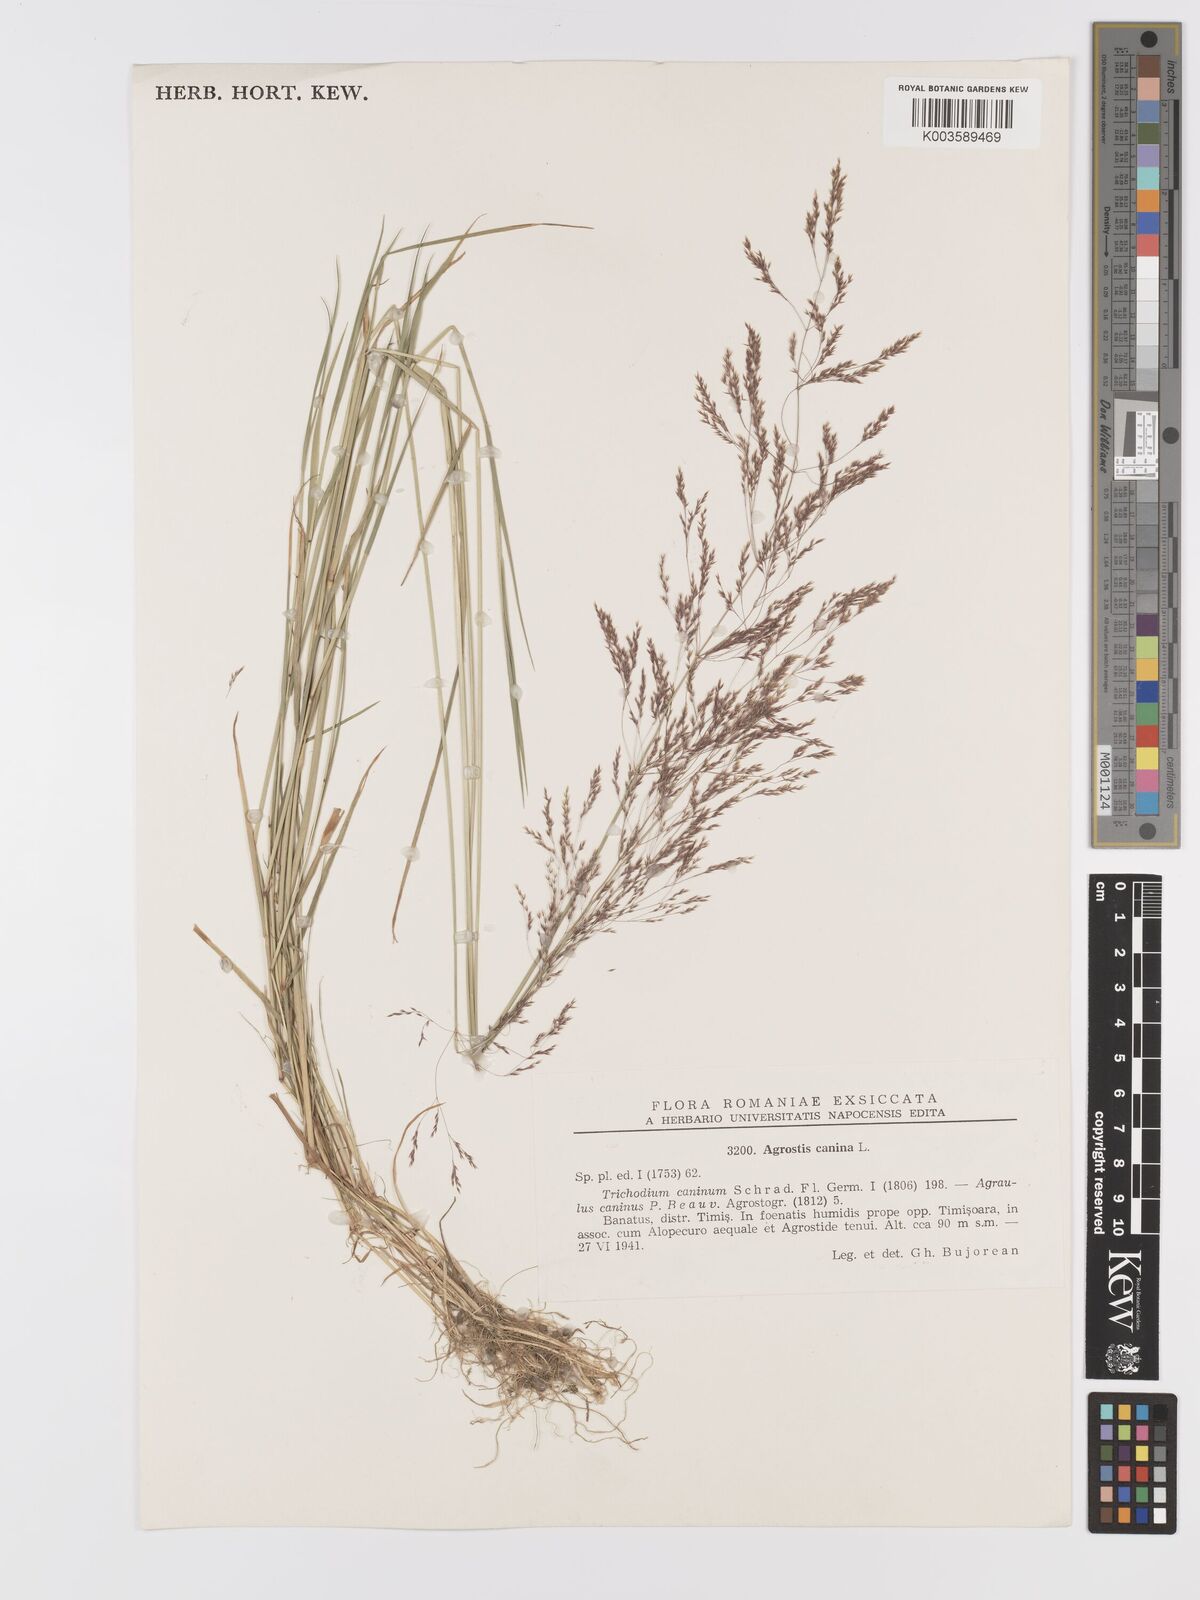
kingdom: Plantae
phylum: Tracheophyta
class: Liliopsida
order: Poales
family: Poaceae
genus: Agrostis
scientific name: Agrostis canina
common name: Velvet bent
